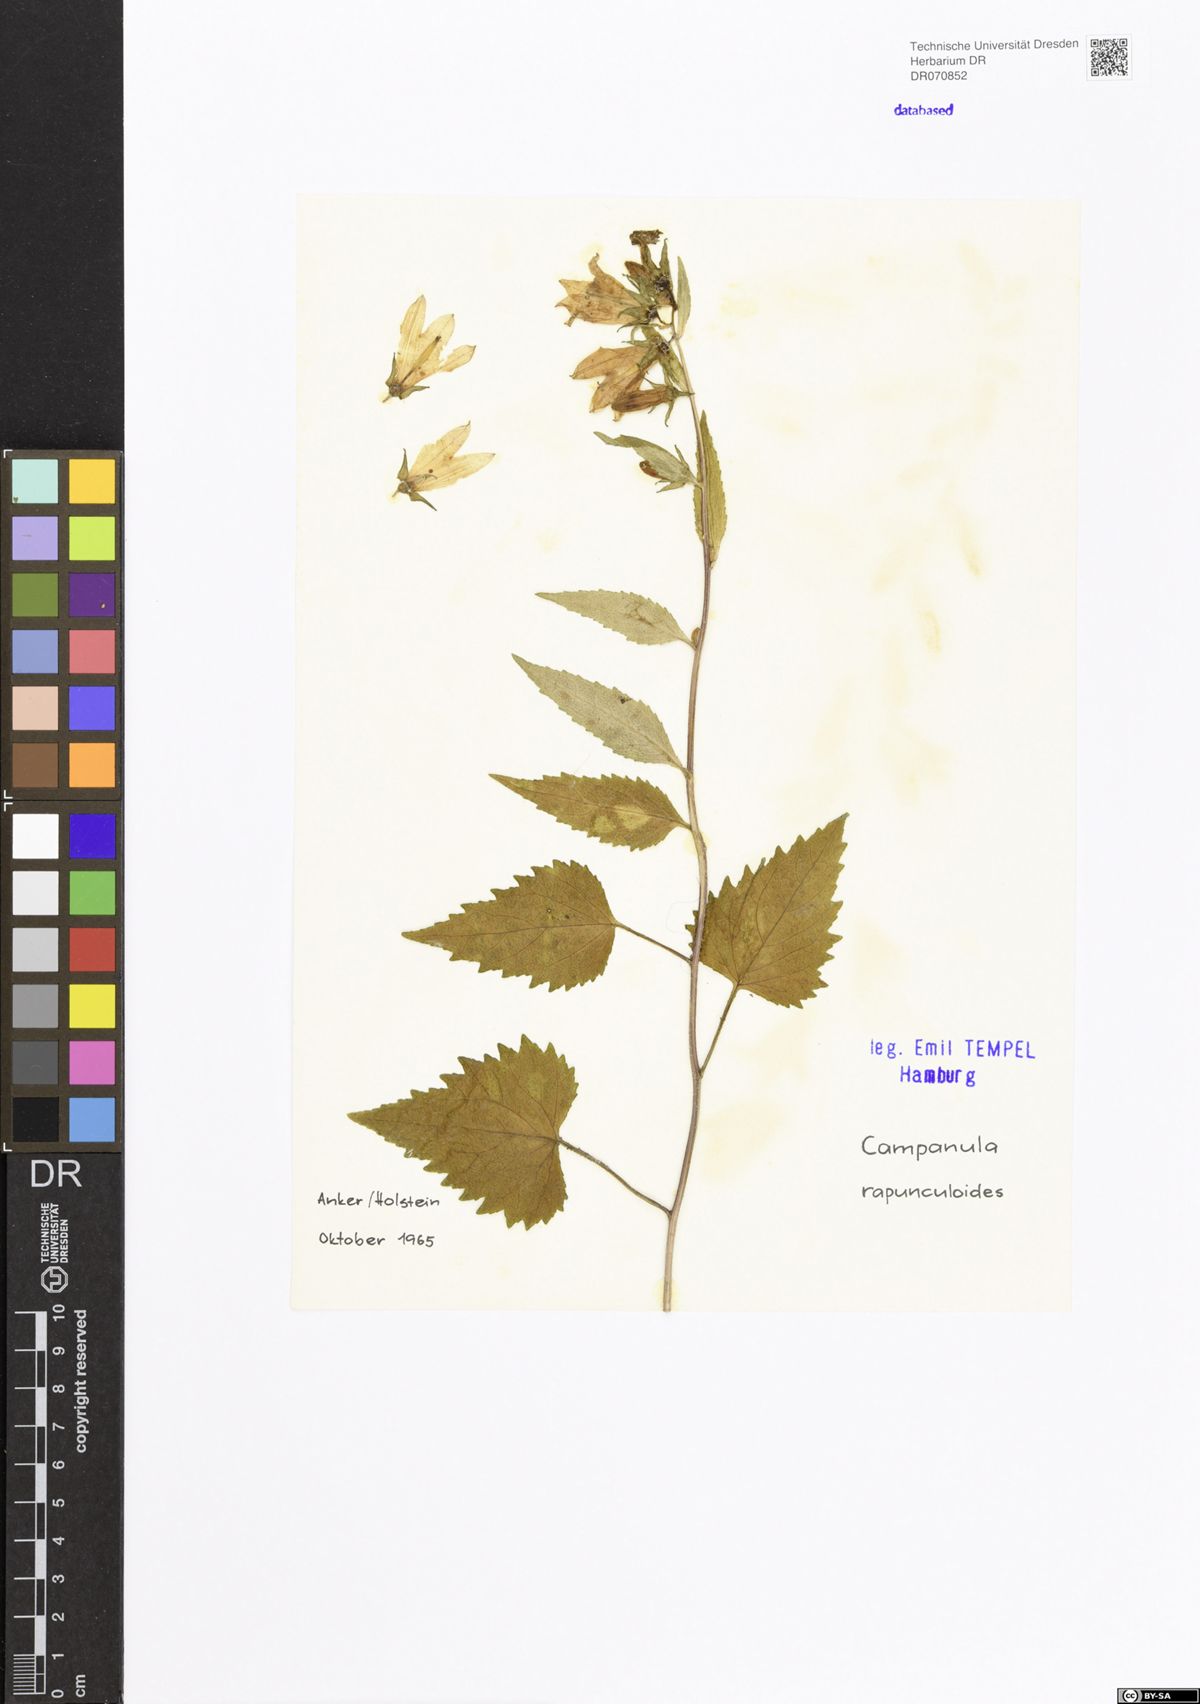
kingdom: Plantae
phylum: Tracheophyta
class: Magnoliopsida
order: Asterales
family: Campanulaceae
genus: Campanula
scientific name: Campanula rapunculoides
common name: Creeping bellflower
